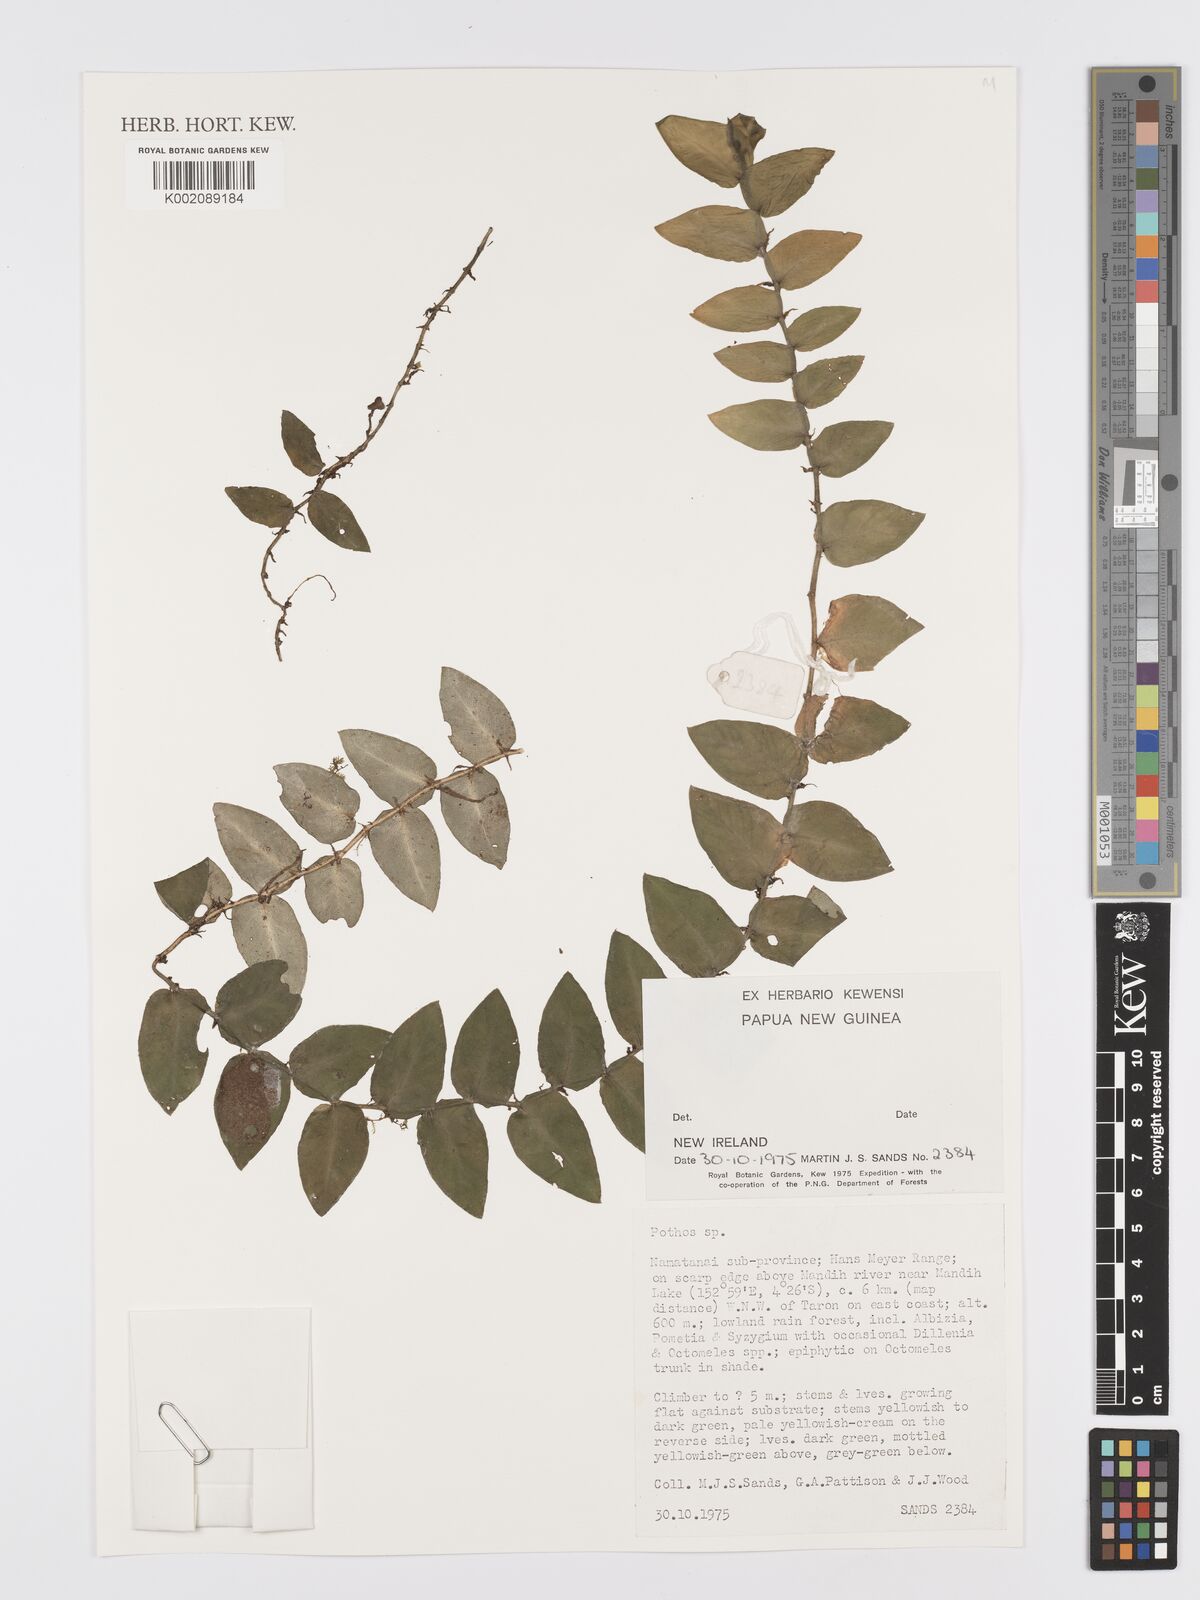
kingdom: Plantae
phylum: Tracheophyta
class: Liliopsida
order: Alismatales
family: Araceae
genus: Pothos
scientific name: Pothos
